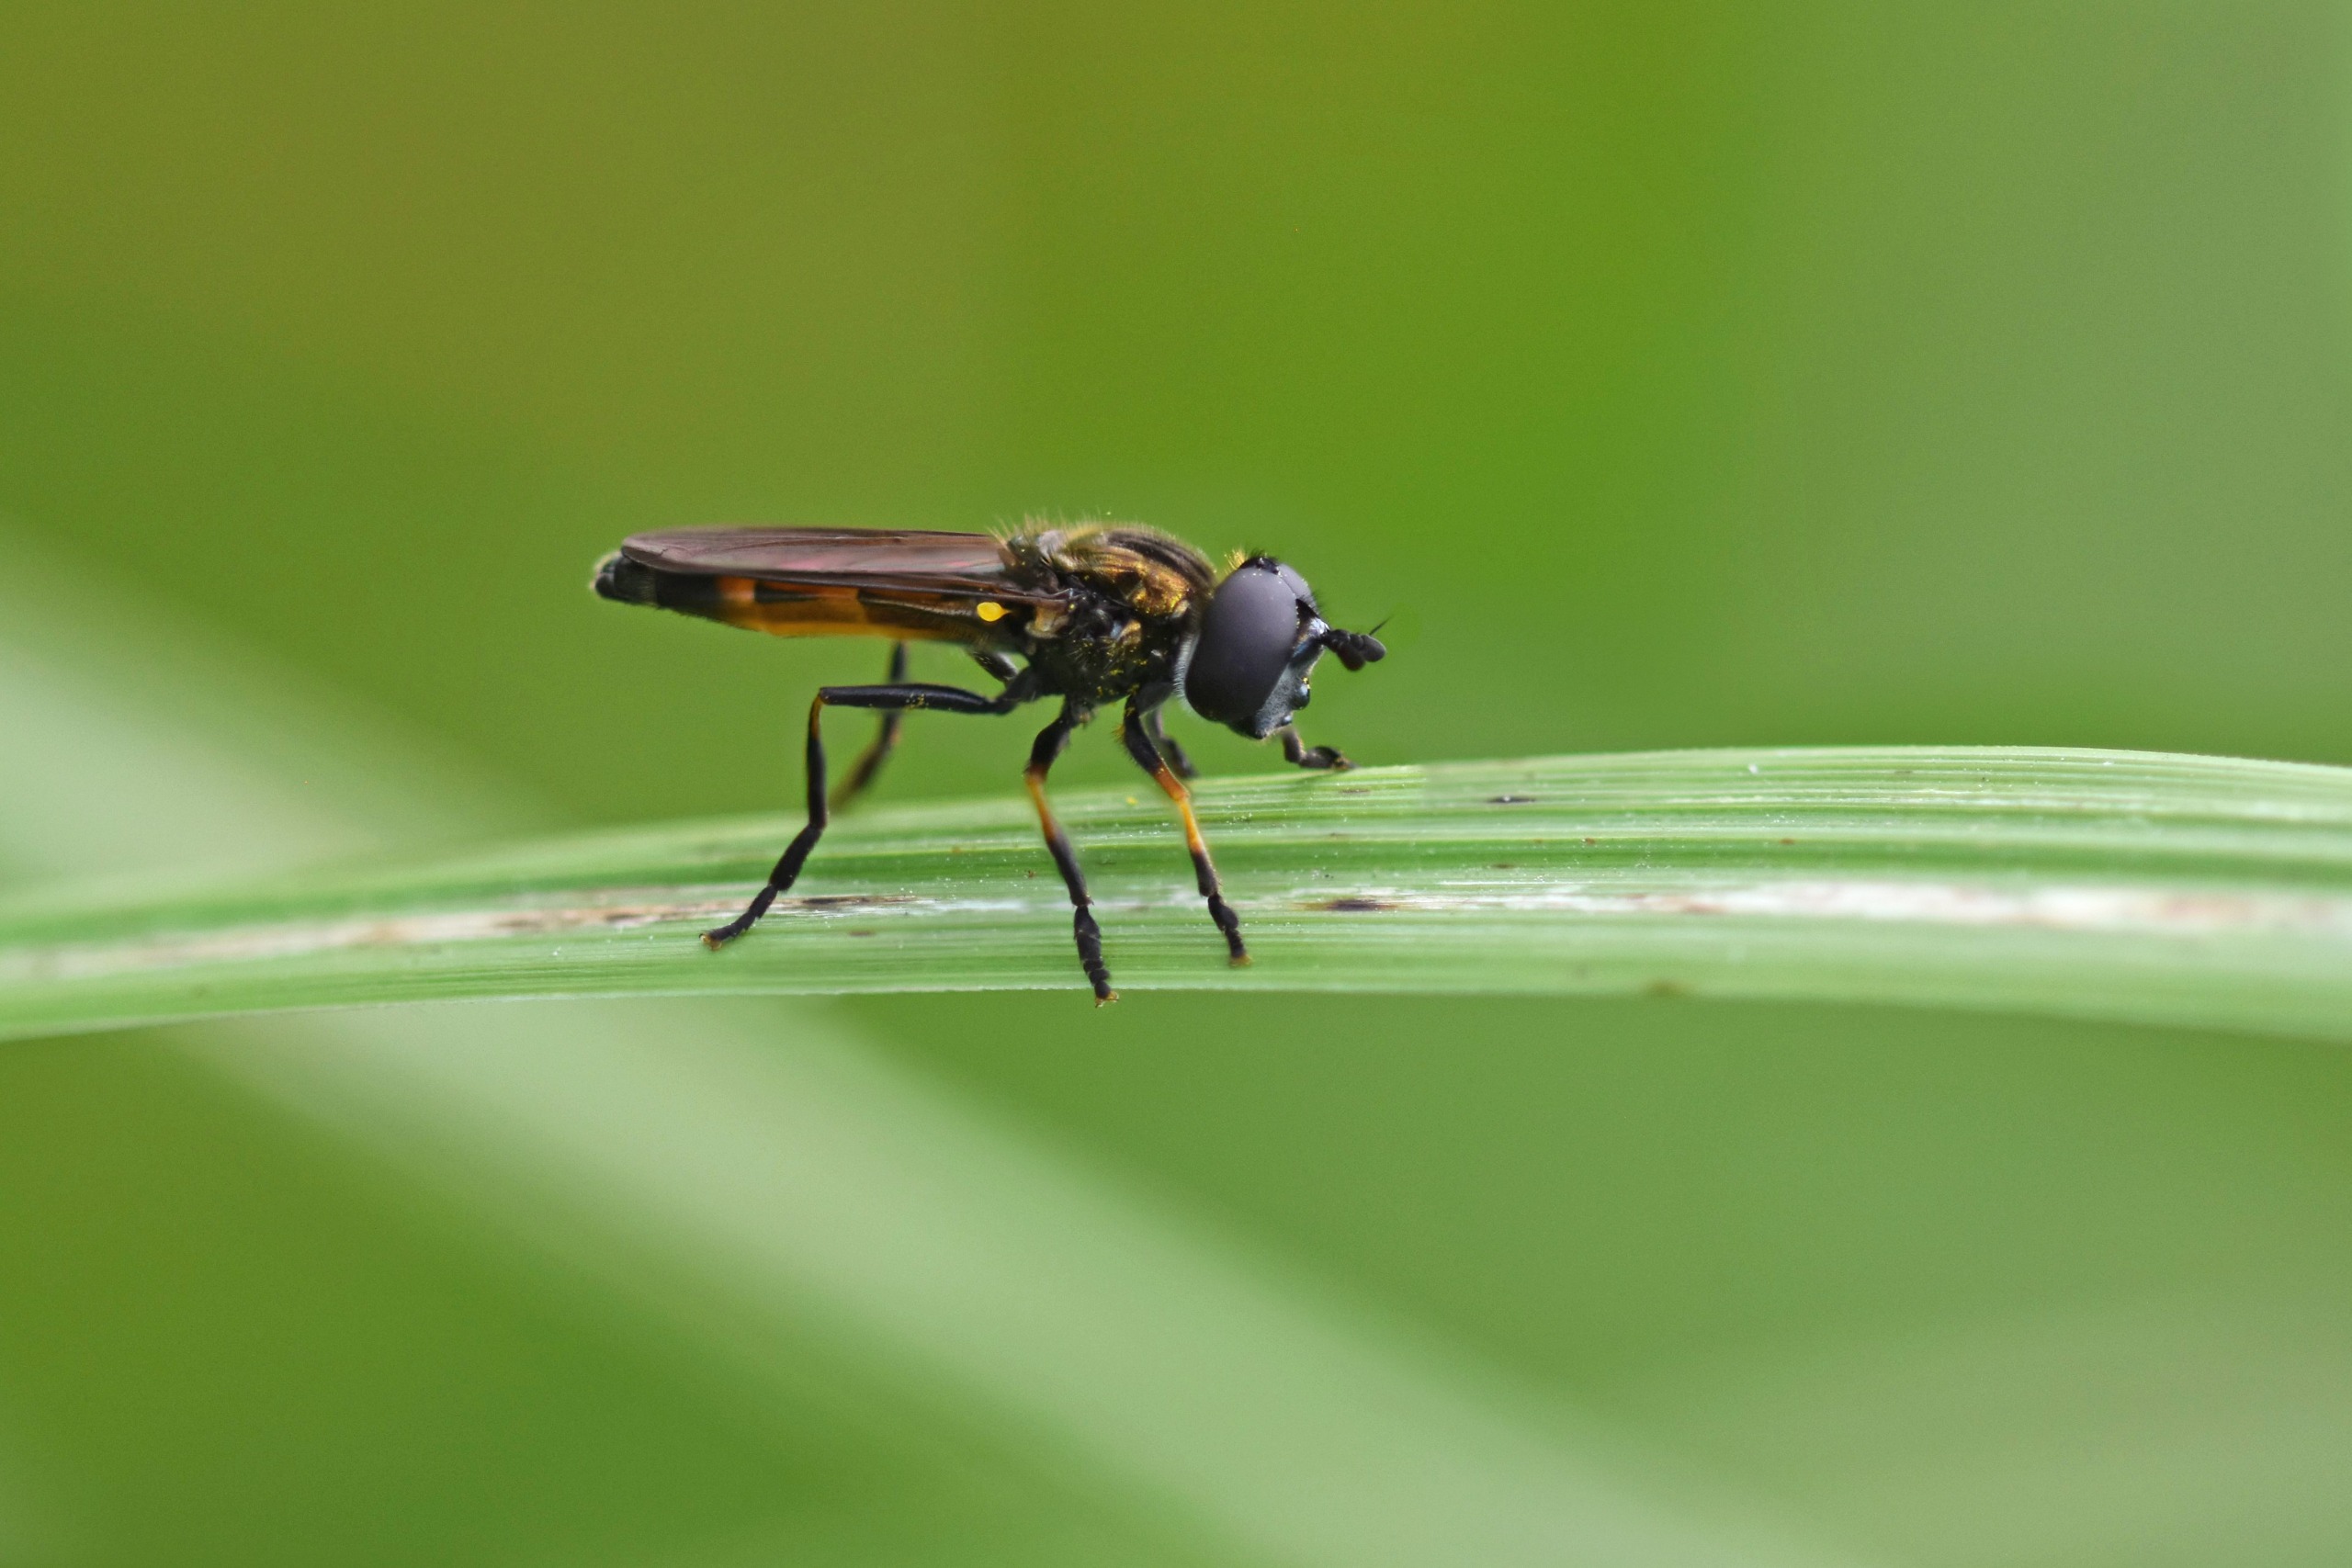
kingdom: Animalia
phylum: Arthropoda
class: Insecta
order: Diptera
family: Syrphidae
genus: Platycheirus
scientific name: Platycheirus granditarsis
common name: Rød ildsvirreflue
